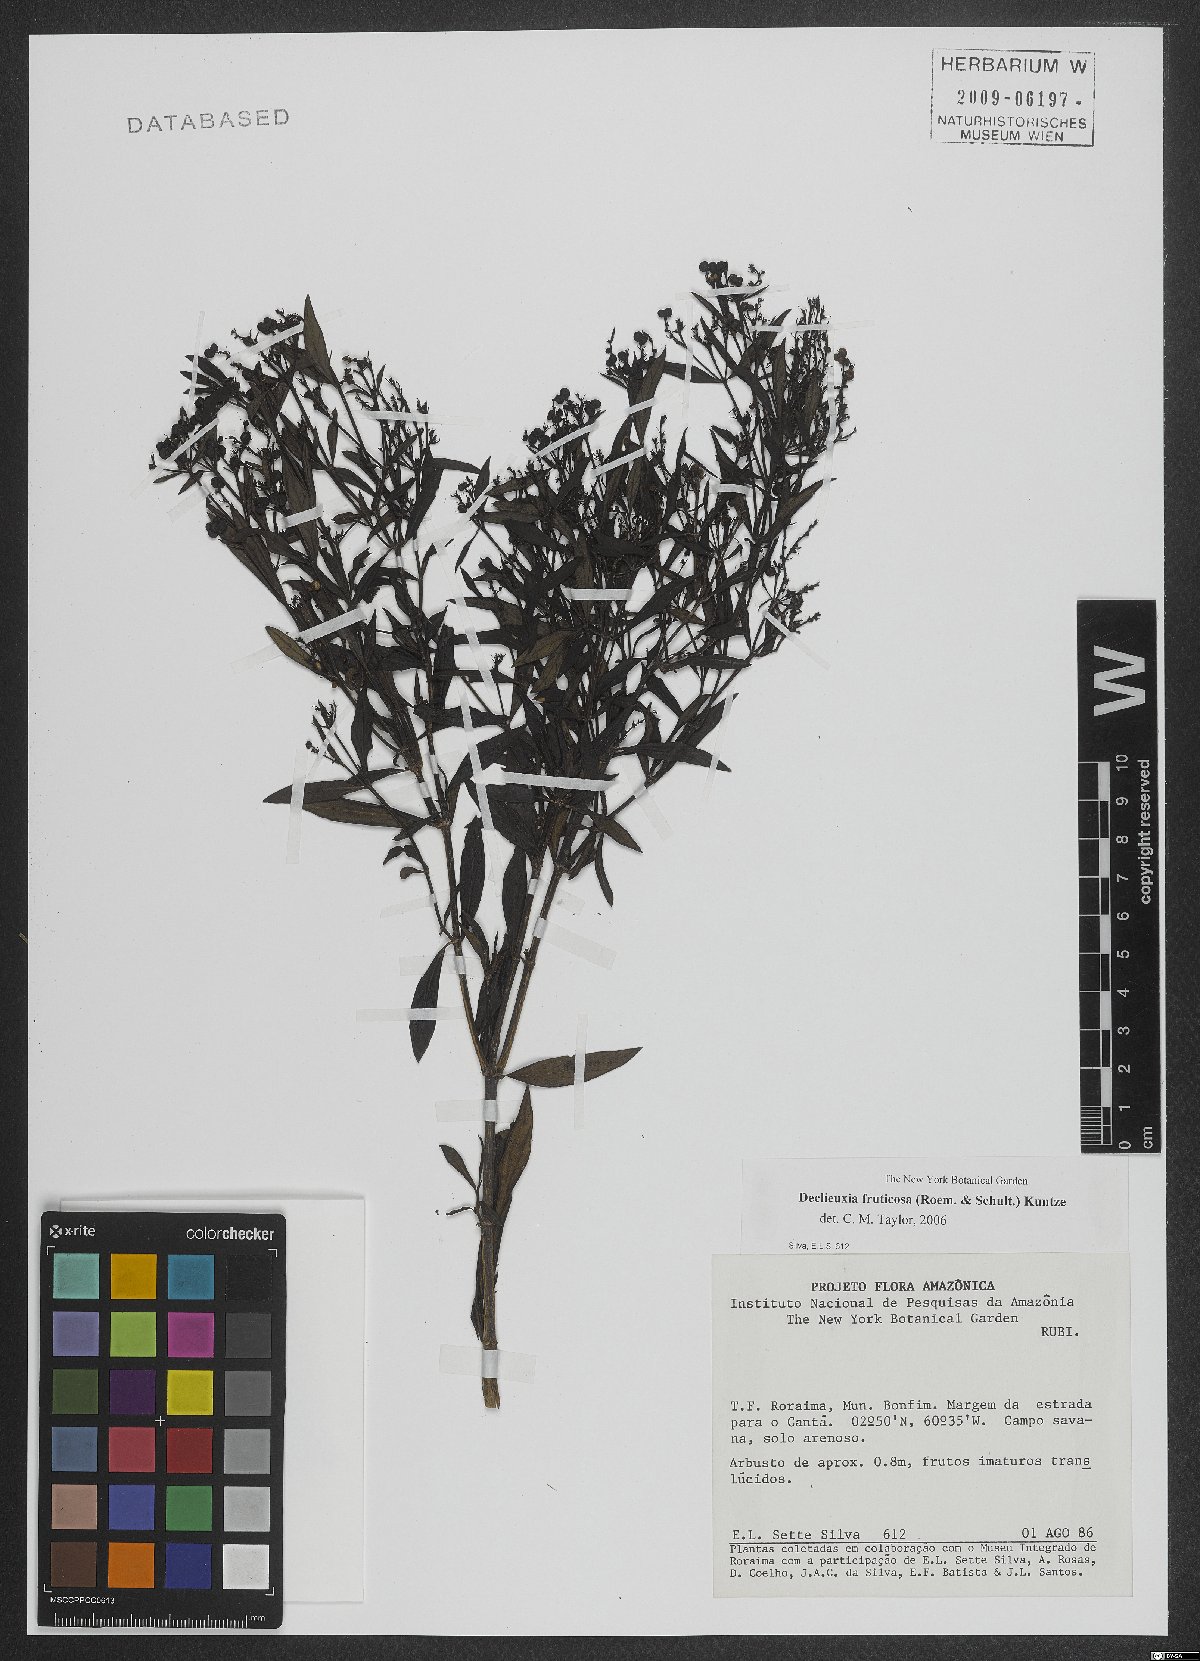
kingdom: Plantae
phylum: Tracheophyta
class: Magnoliopsida
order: Gentianales
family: Rubiaceae
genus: Declieuxia
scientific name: Declieuxia fruticosa
